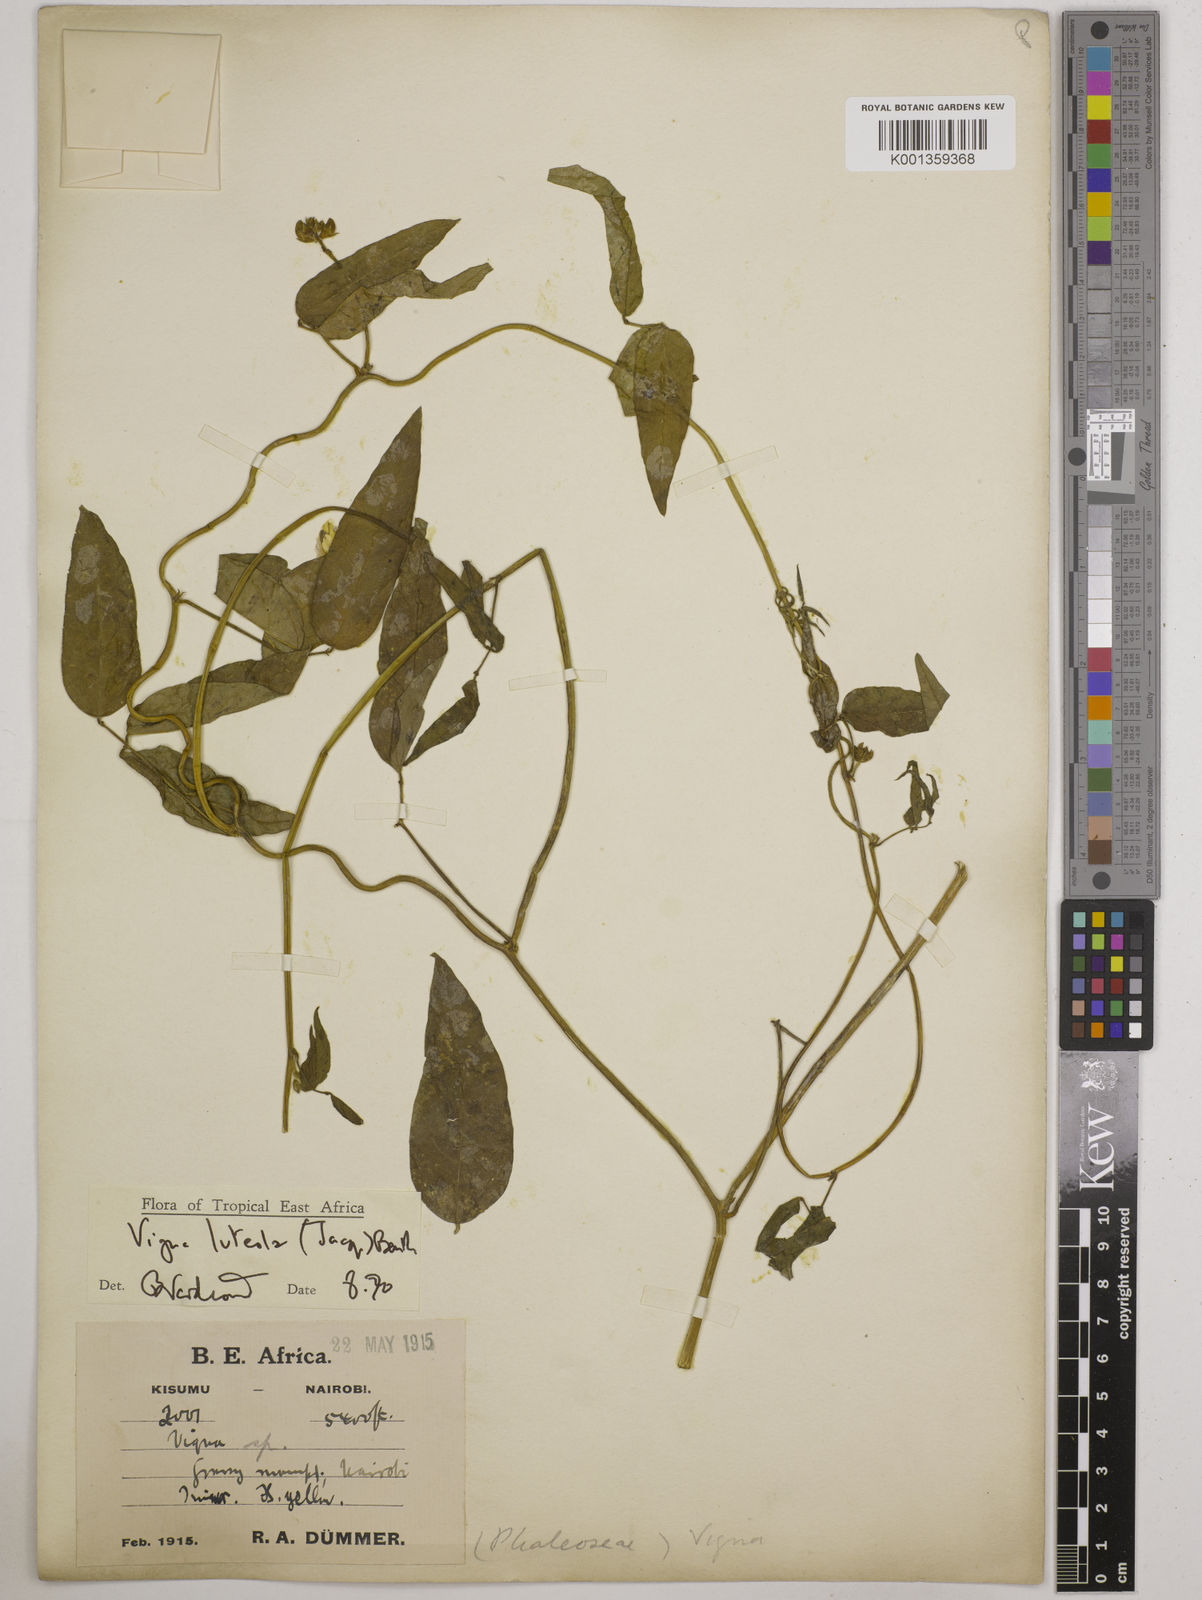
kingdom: Plantae
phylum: Tracheophyta
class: Magnoliopsida
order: Fabales
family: Fabaceae
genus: Vigna
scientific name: Vigna luteola
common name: Hairypod cowpea
